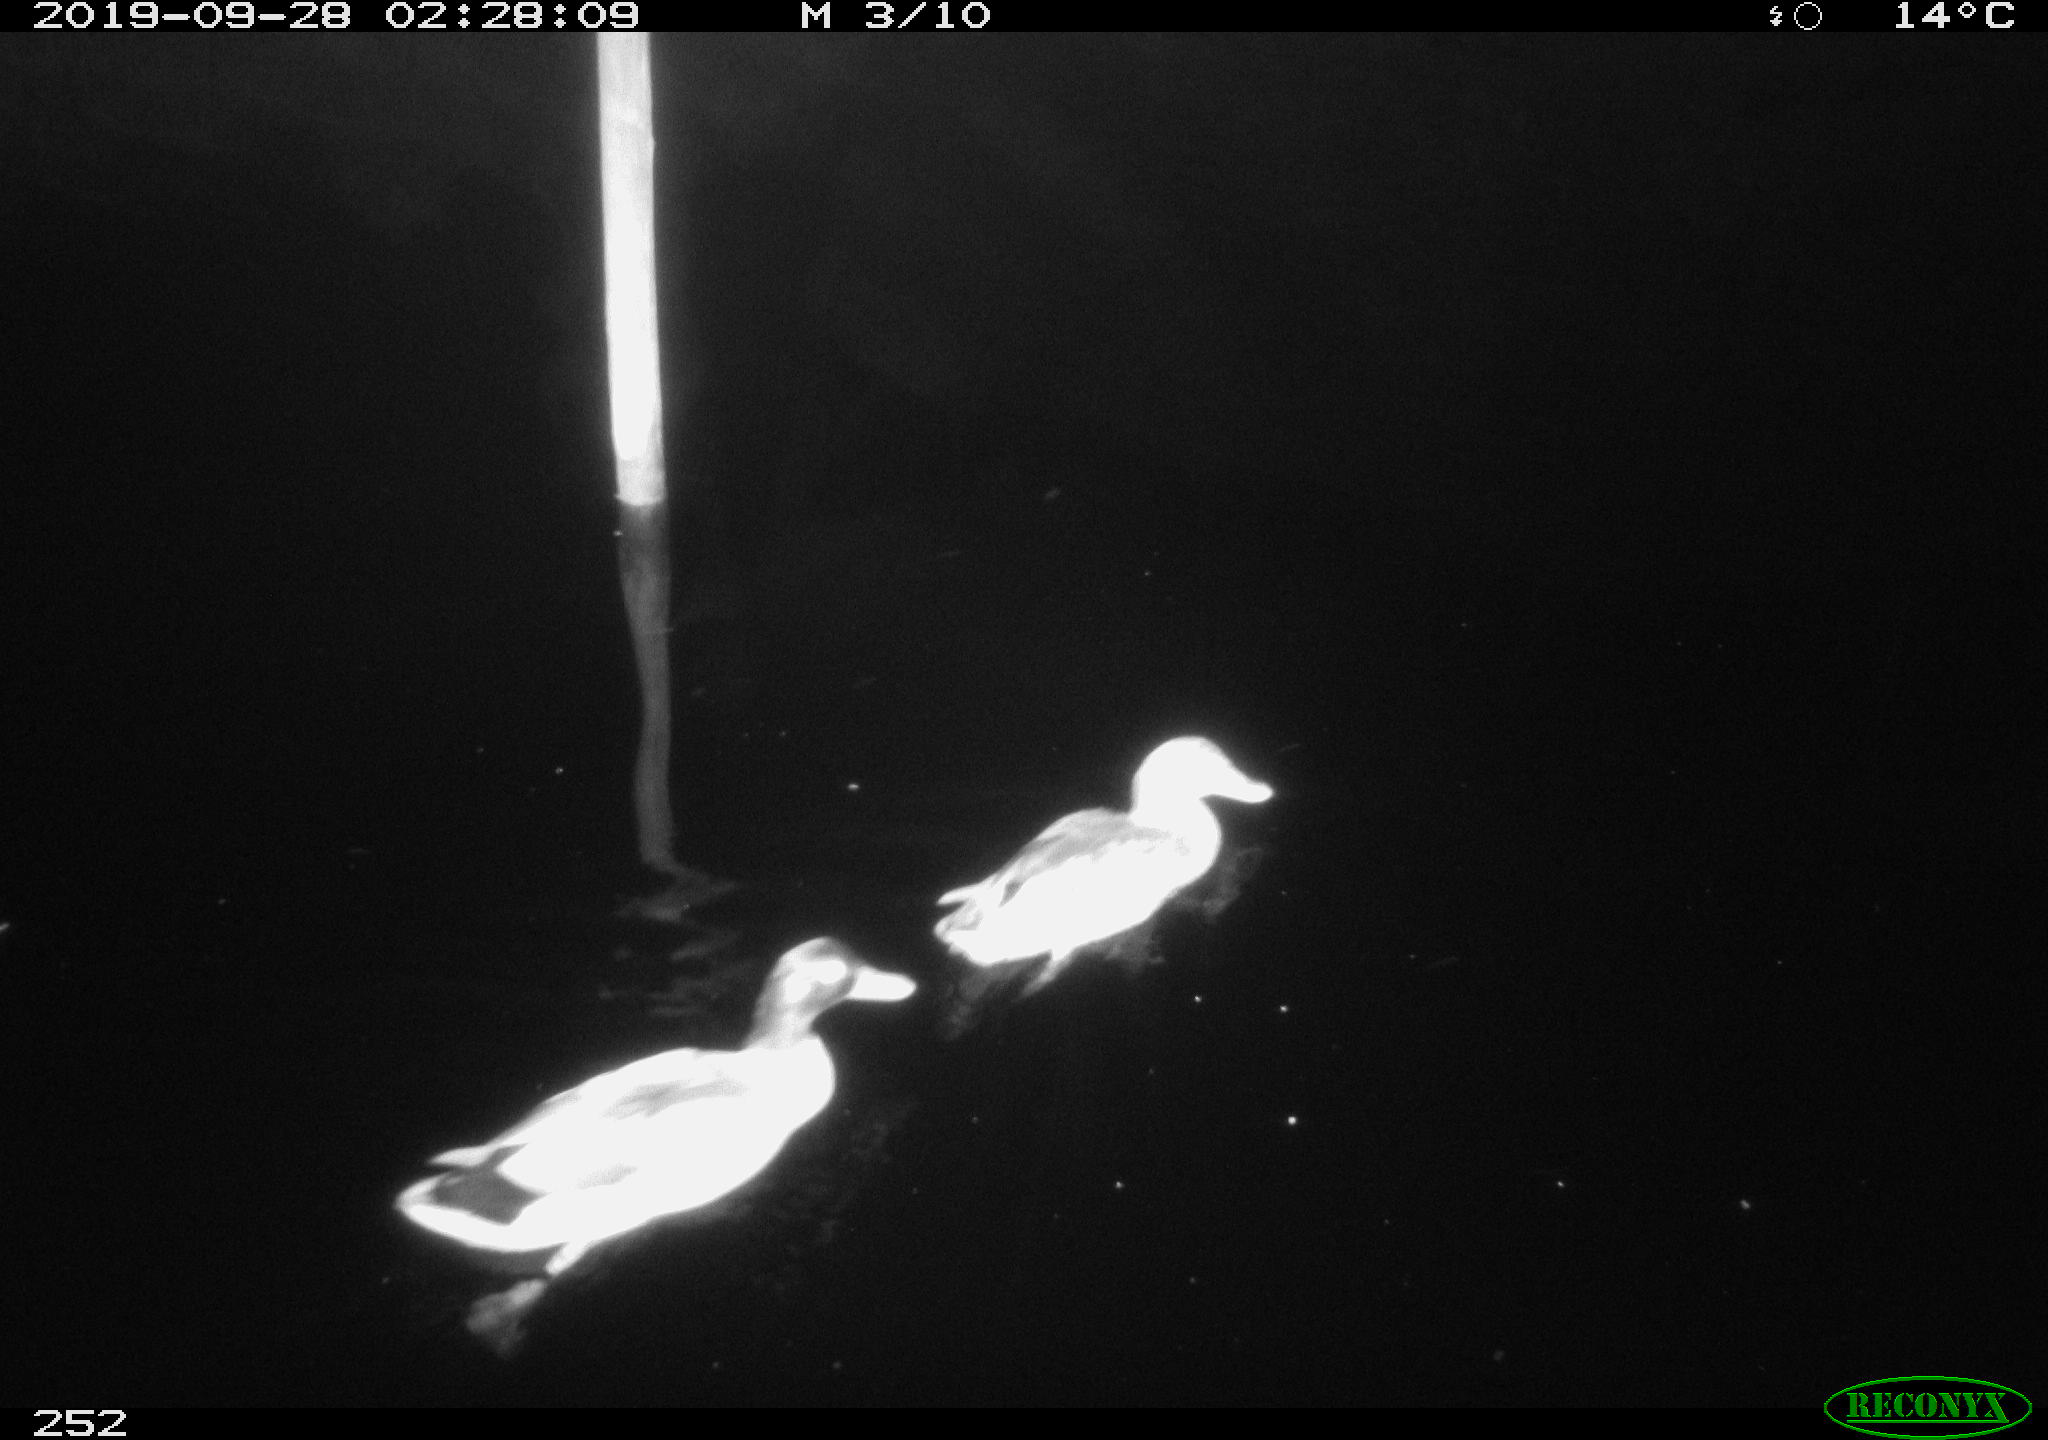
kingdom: Animalia
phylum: Chordata
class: Aves
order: Anseriformes
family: Anatidae
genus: Anas
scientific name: Anas platyrhynchos
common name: Mallard
